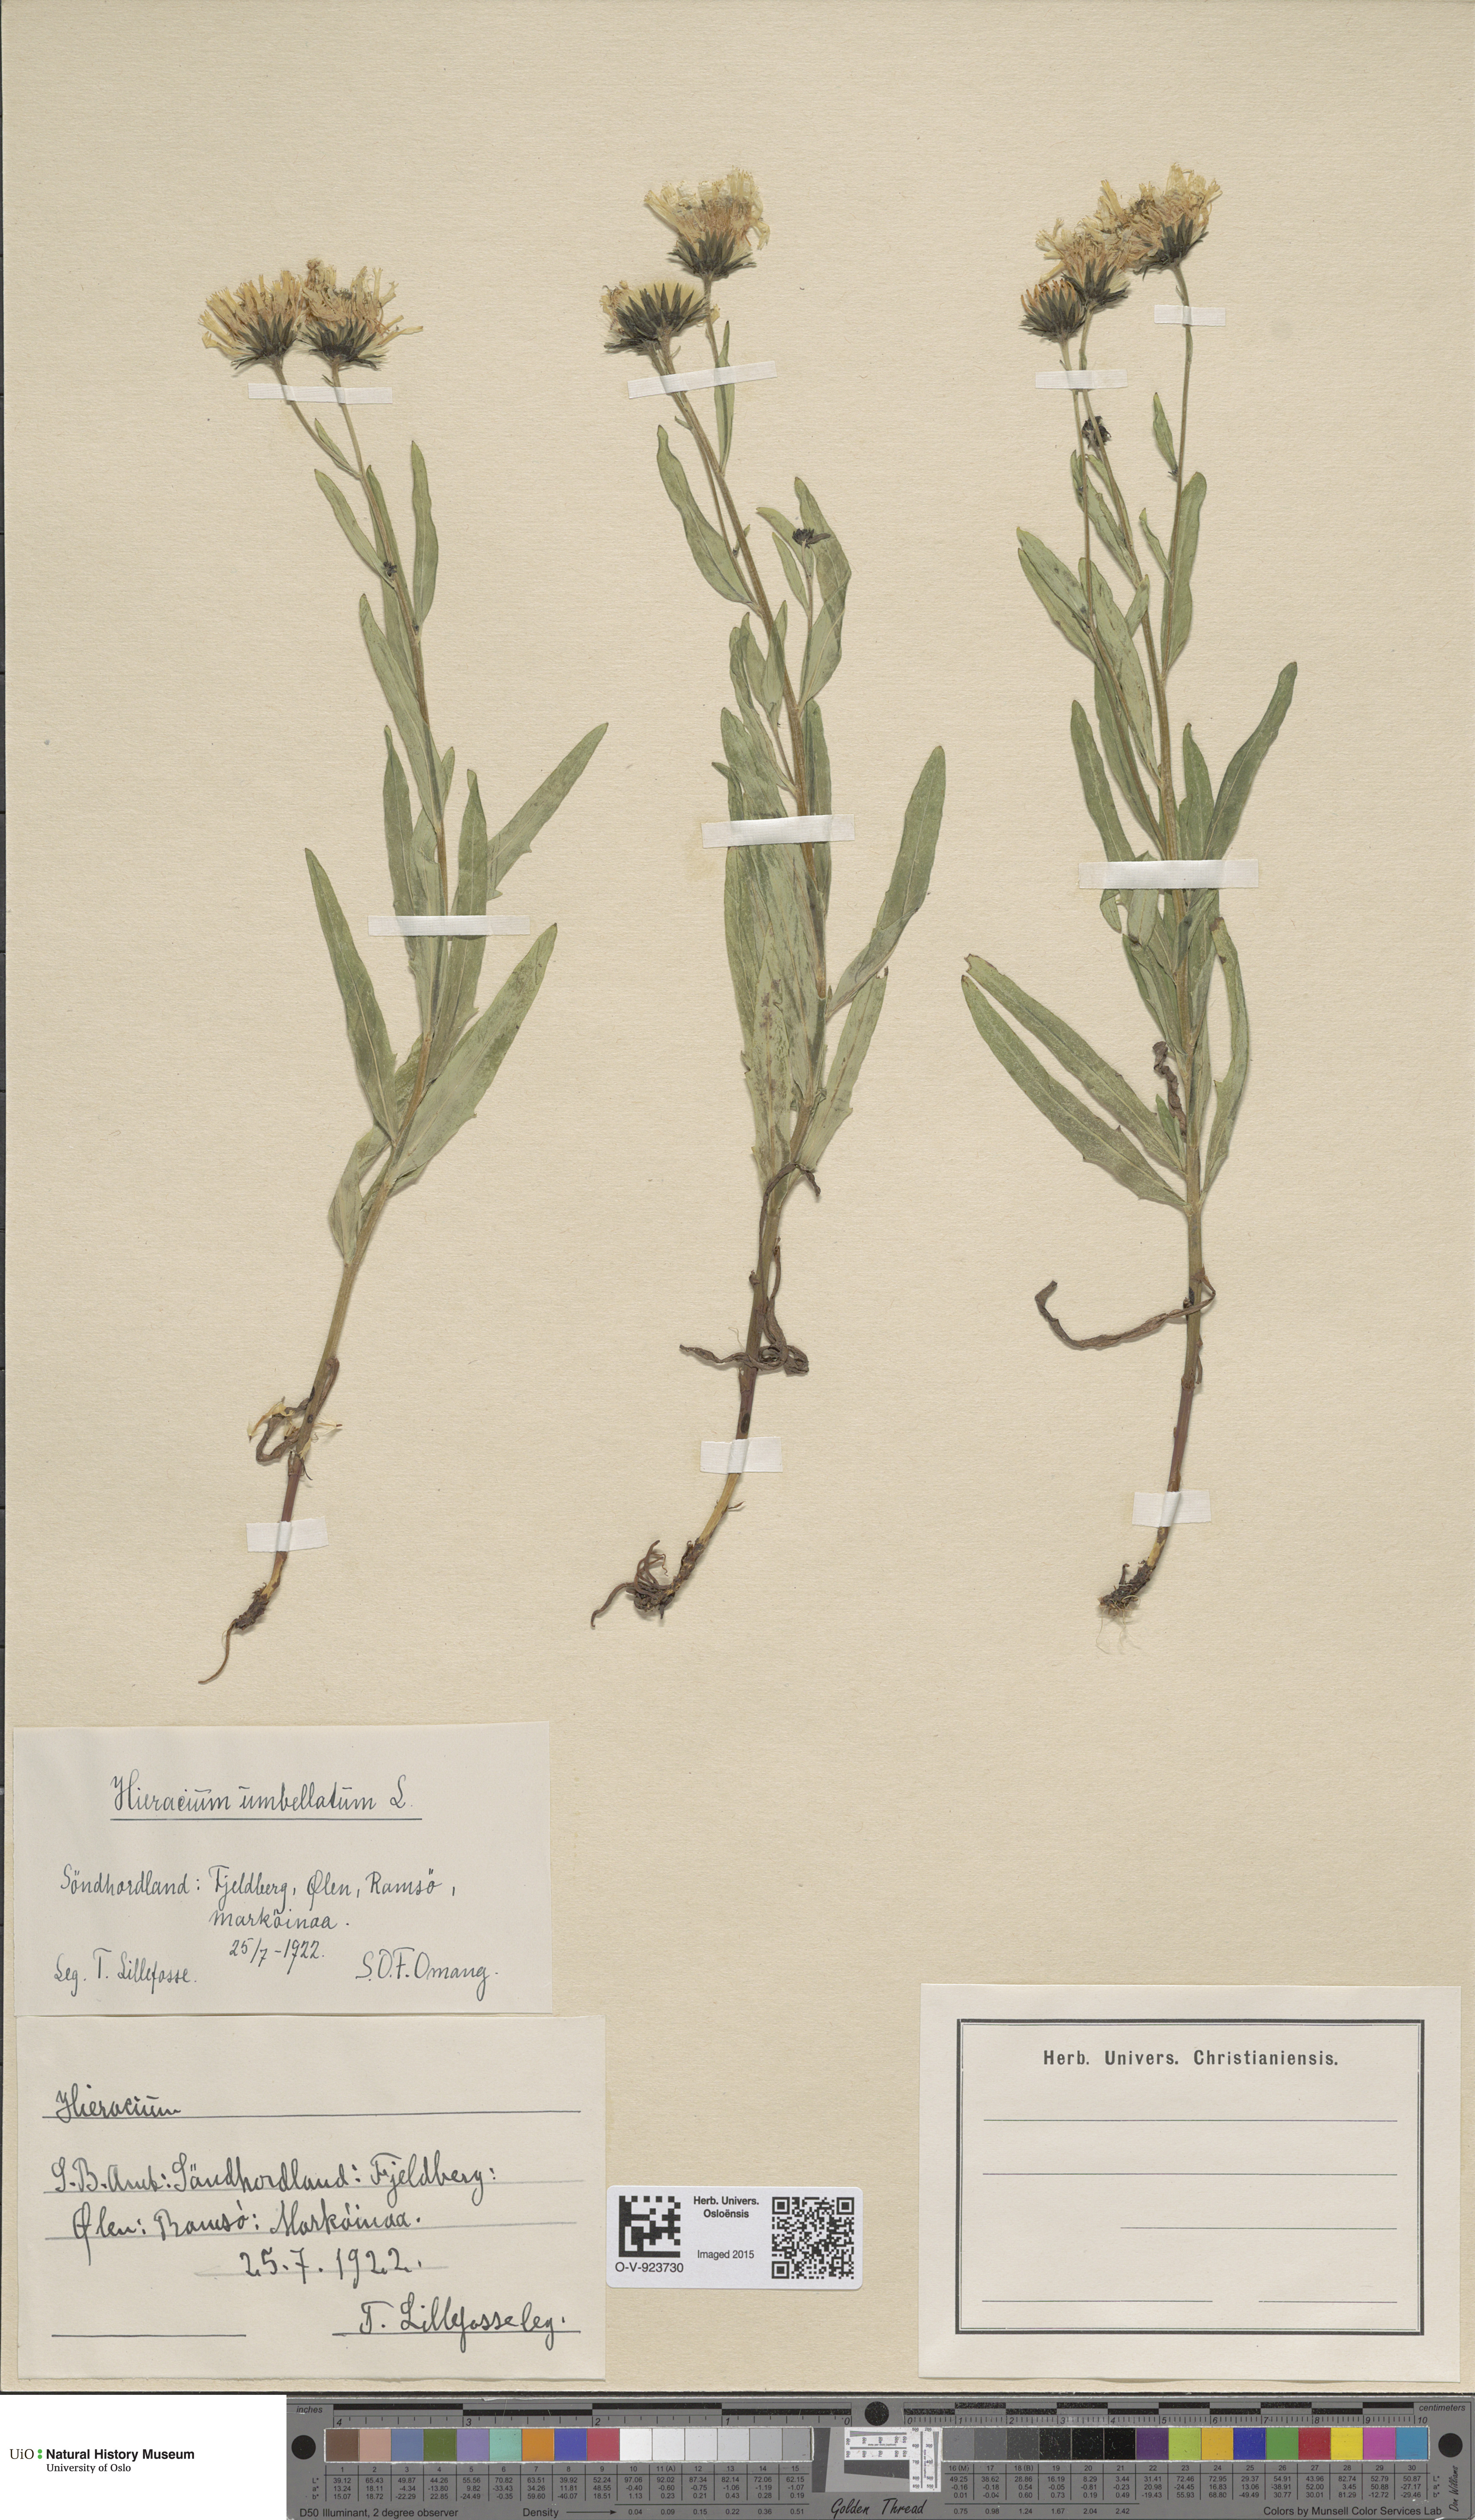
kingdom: Plantae
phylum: Tracheophyta
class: Magnoliopsida
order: Asterales
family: Asteraceae
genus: Hieracium
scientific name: Hieracium umbellatum
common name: Northern hawkweed
